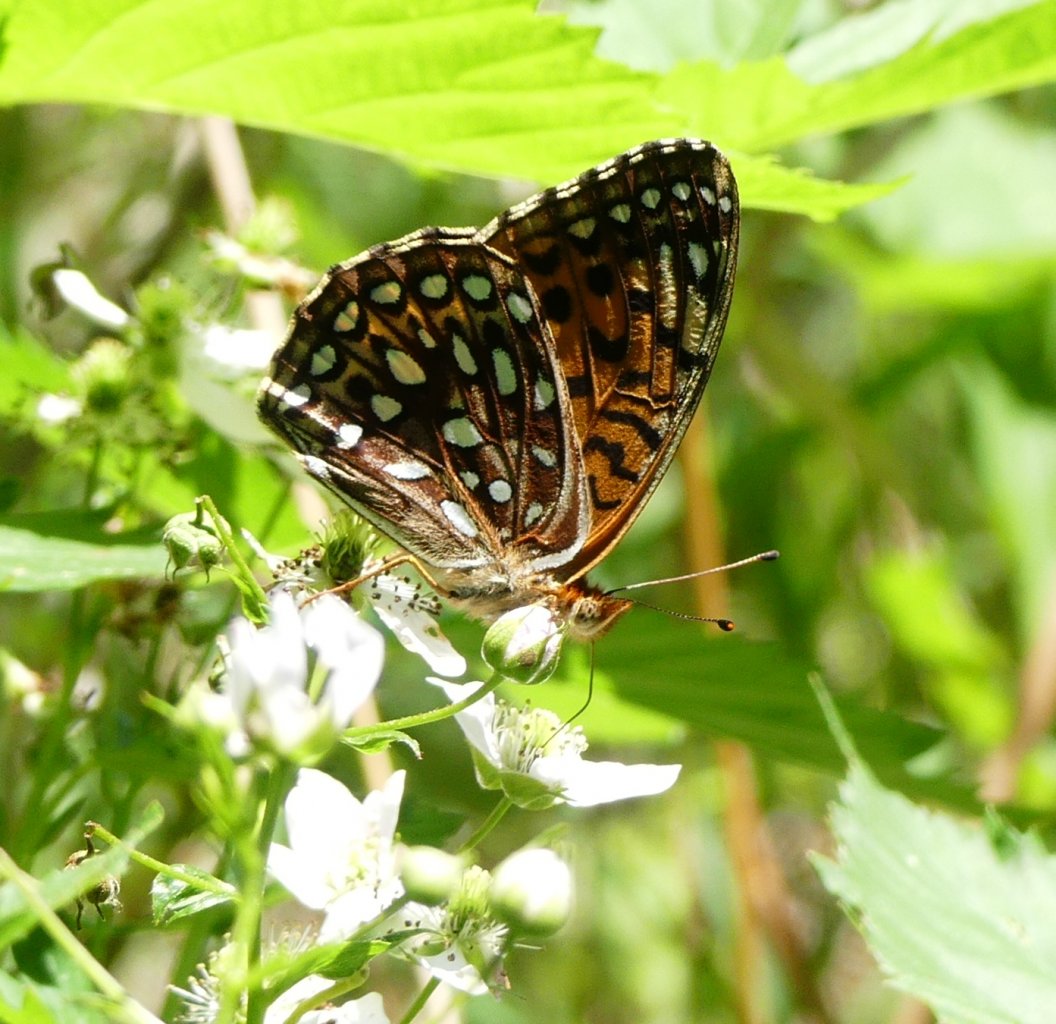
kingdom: Animalia
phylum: Arthropoda
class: Insecta
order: Lepidoptera
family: Nymphalidae
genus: Speyeria
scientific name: Speyeria
